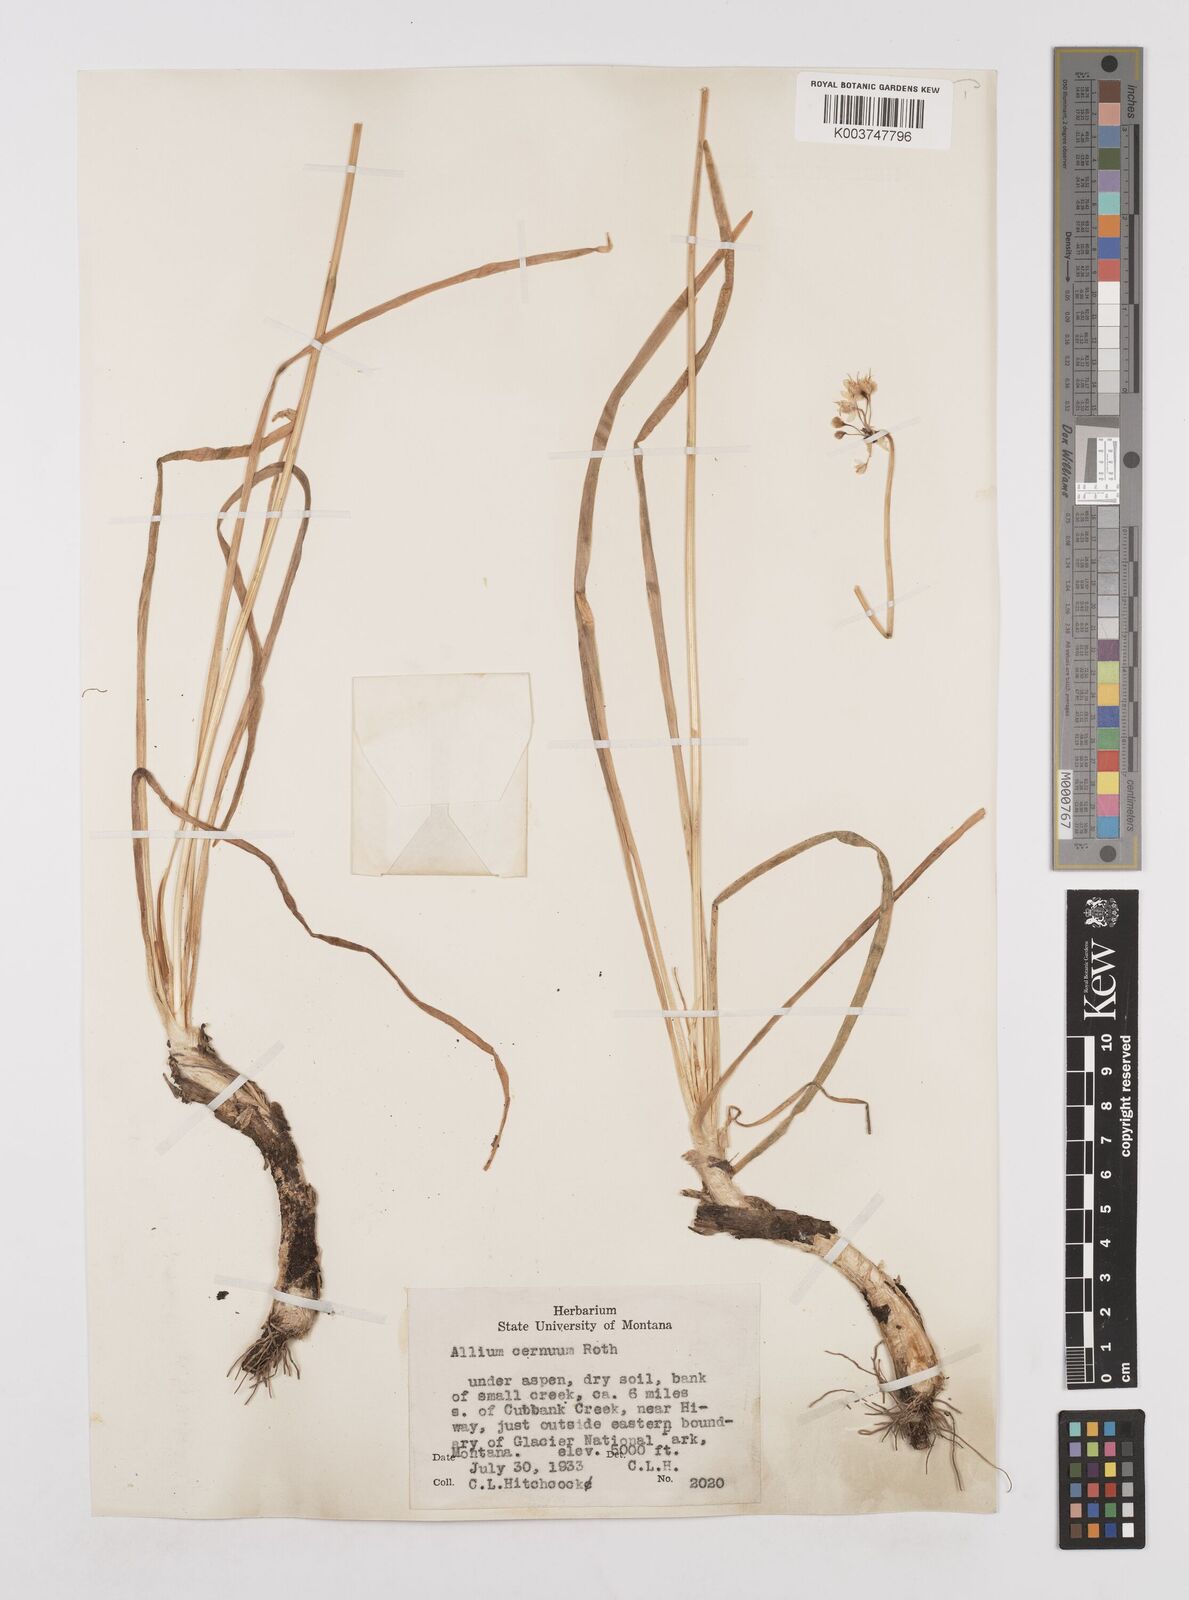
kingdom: Plantae
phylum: Tracheophyta
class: Liliopsida
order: Asparagales
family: Amaryllidaceae
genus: Allium
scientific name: Allium cernuum
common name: Nodding onion
